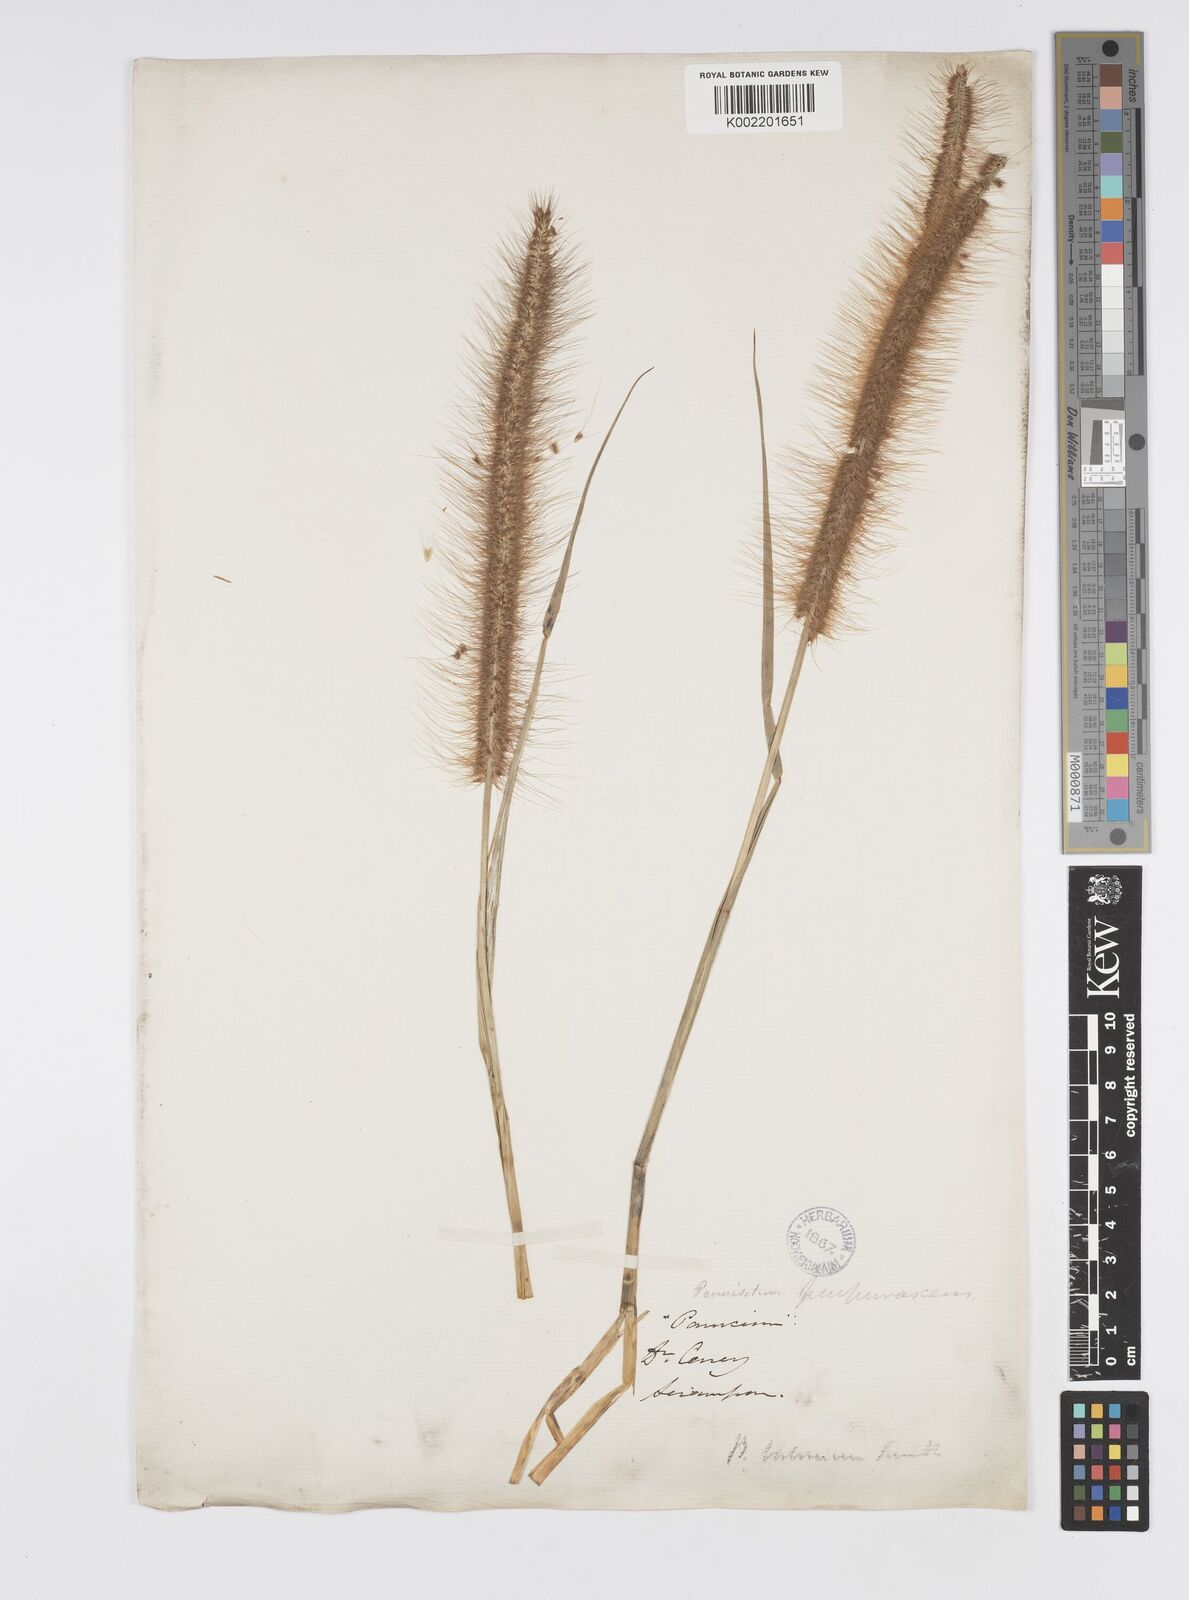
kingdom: Plantae
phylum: Tracheophyta
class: Liliopsida
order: Poales
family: Poaceae
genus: Setaria
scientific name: Setaria parviflora
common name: Knotroot bristle-grass
